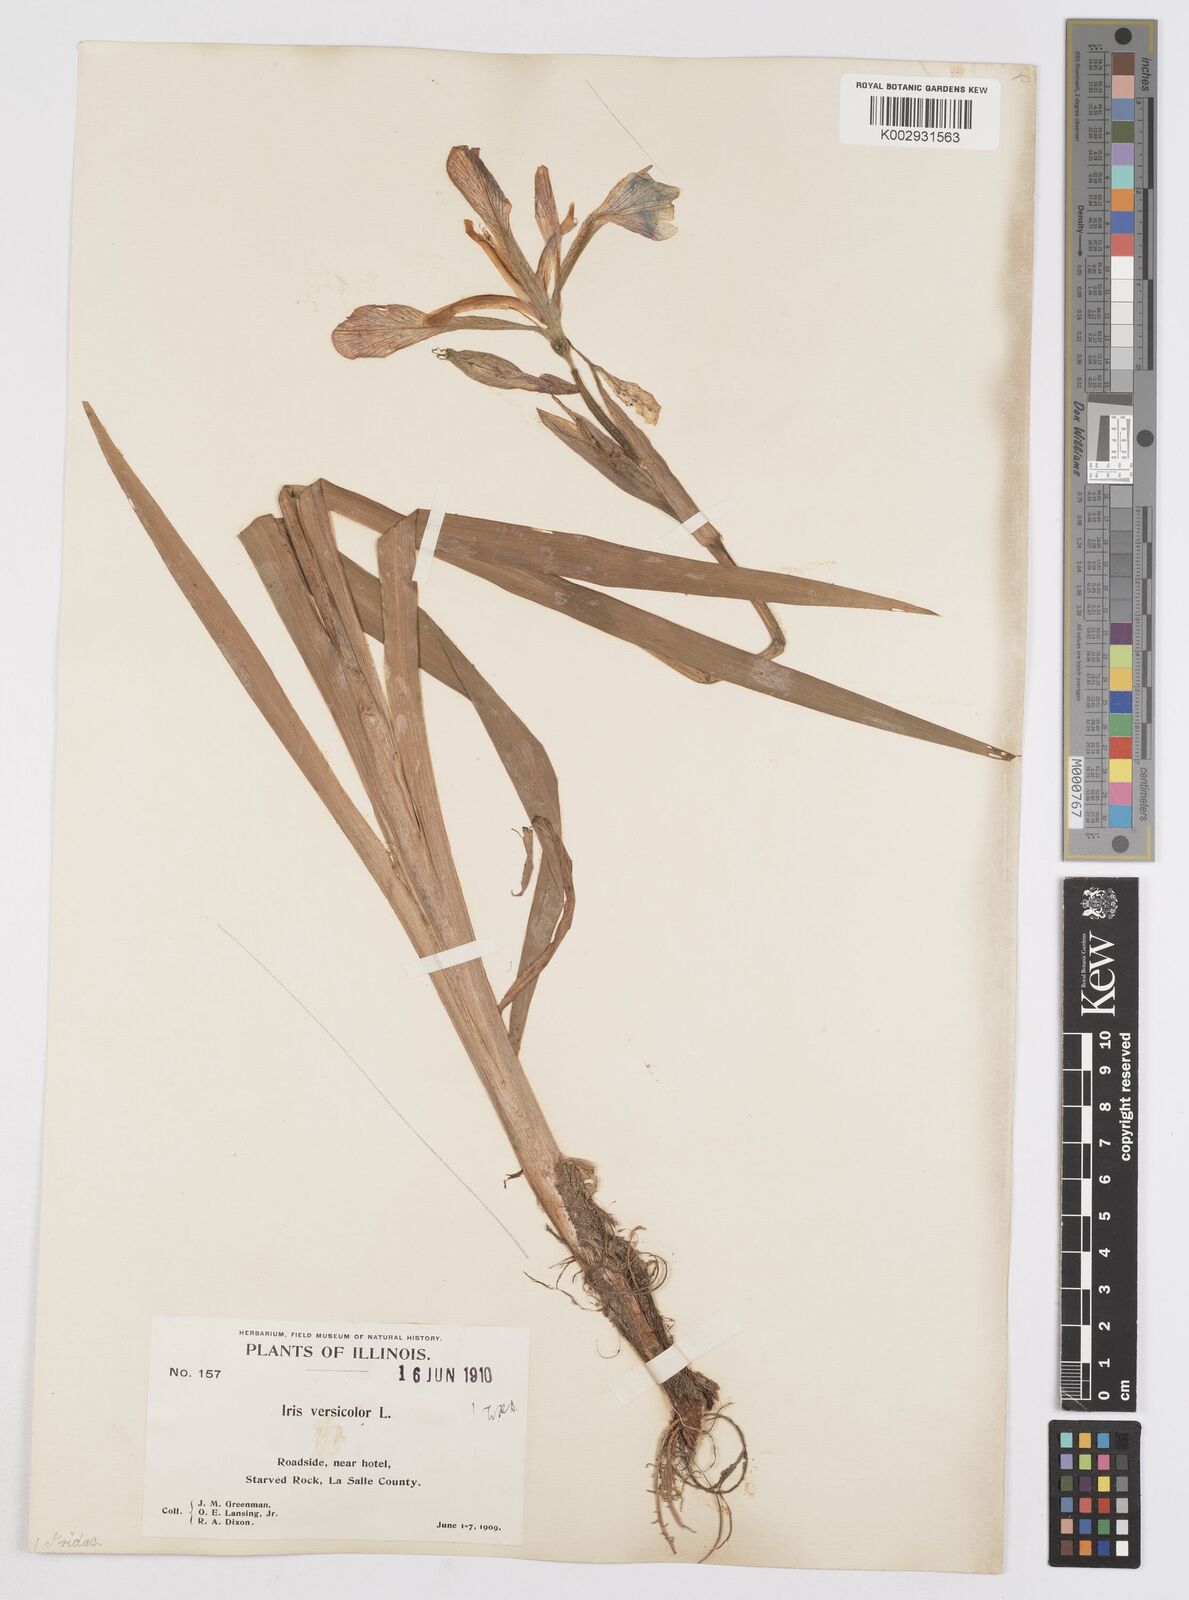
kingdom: Plantae
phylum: Tracheophyta
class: Liliopsida
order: Asparagales
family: Iridaceae
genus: Iris
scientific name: Iris virginica
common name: Southern blue flag
